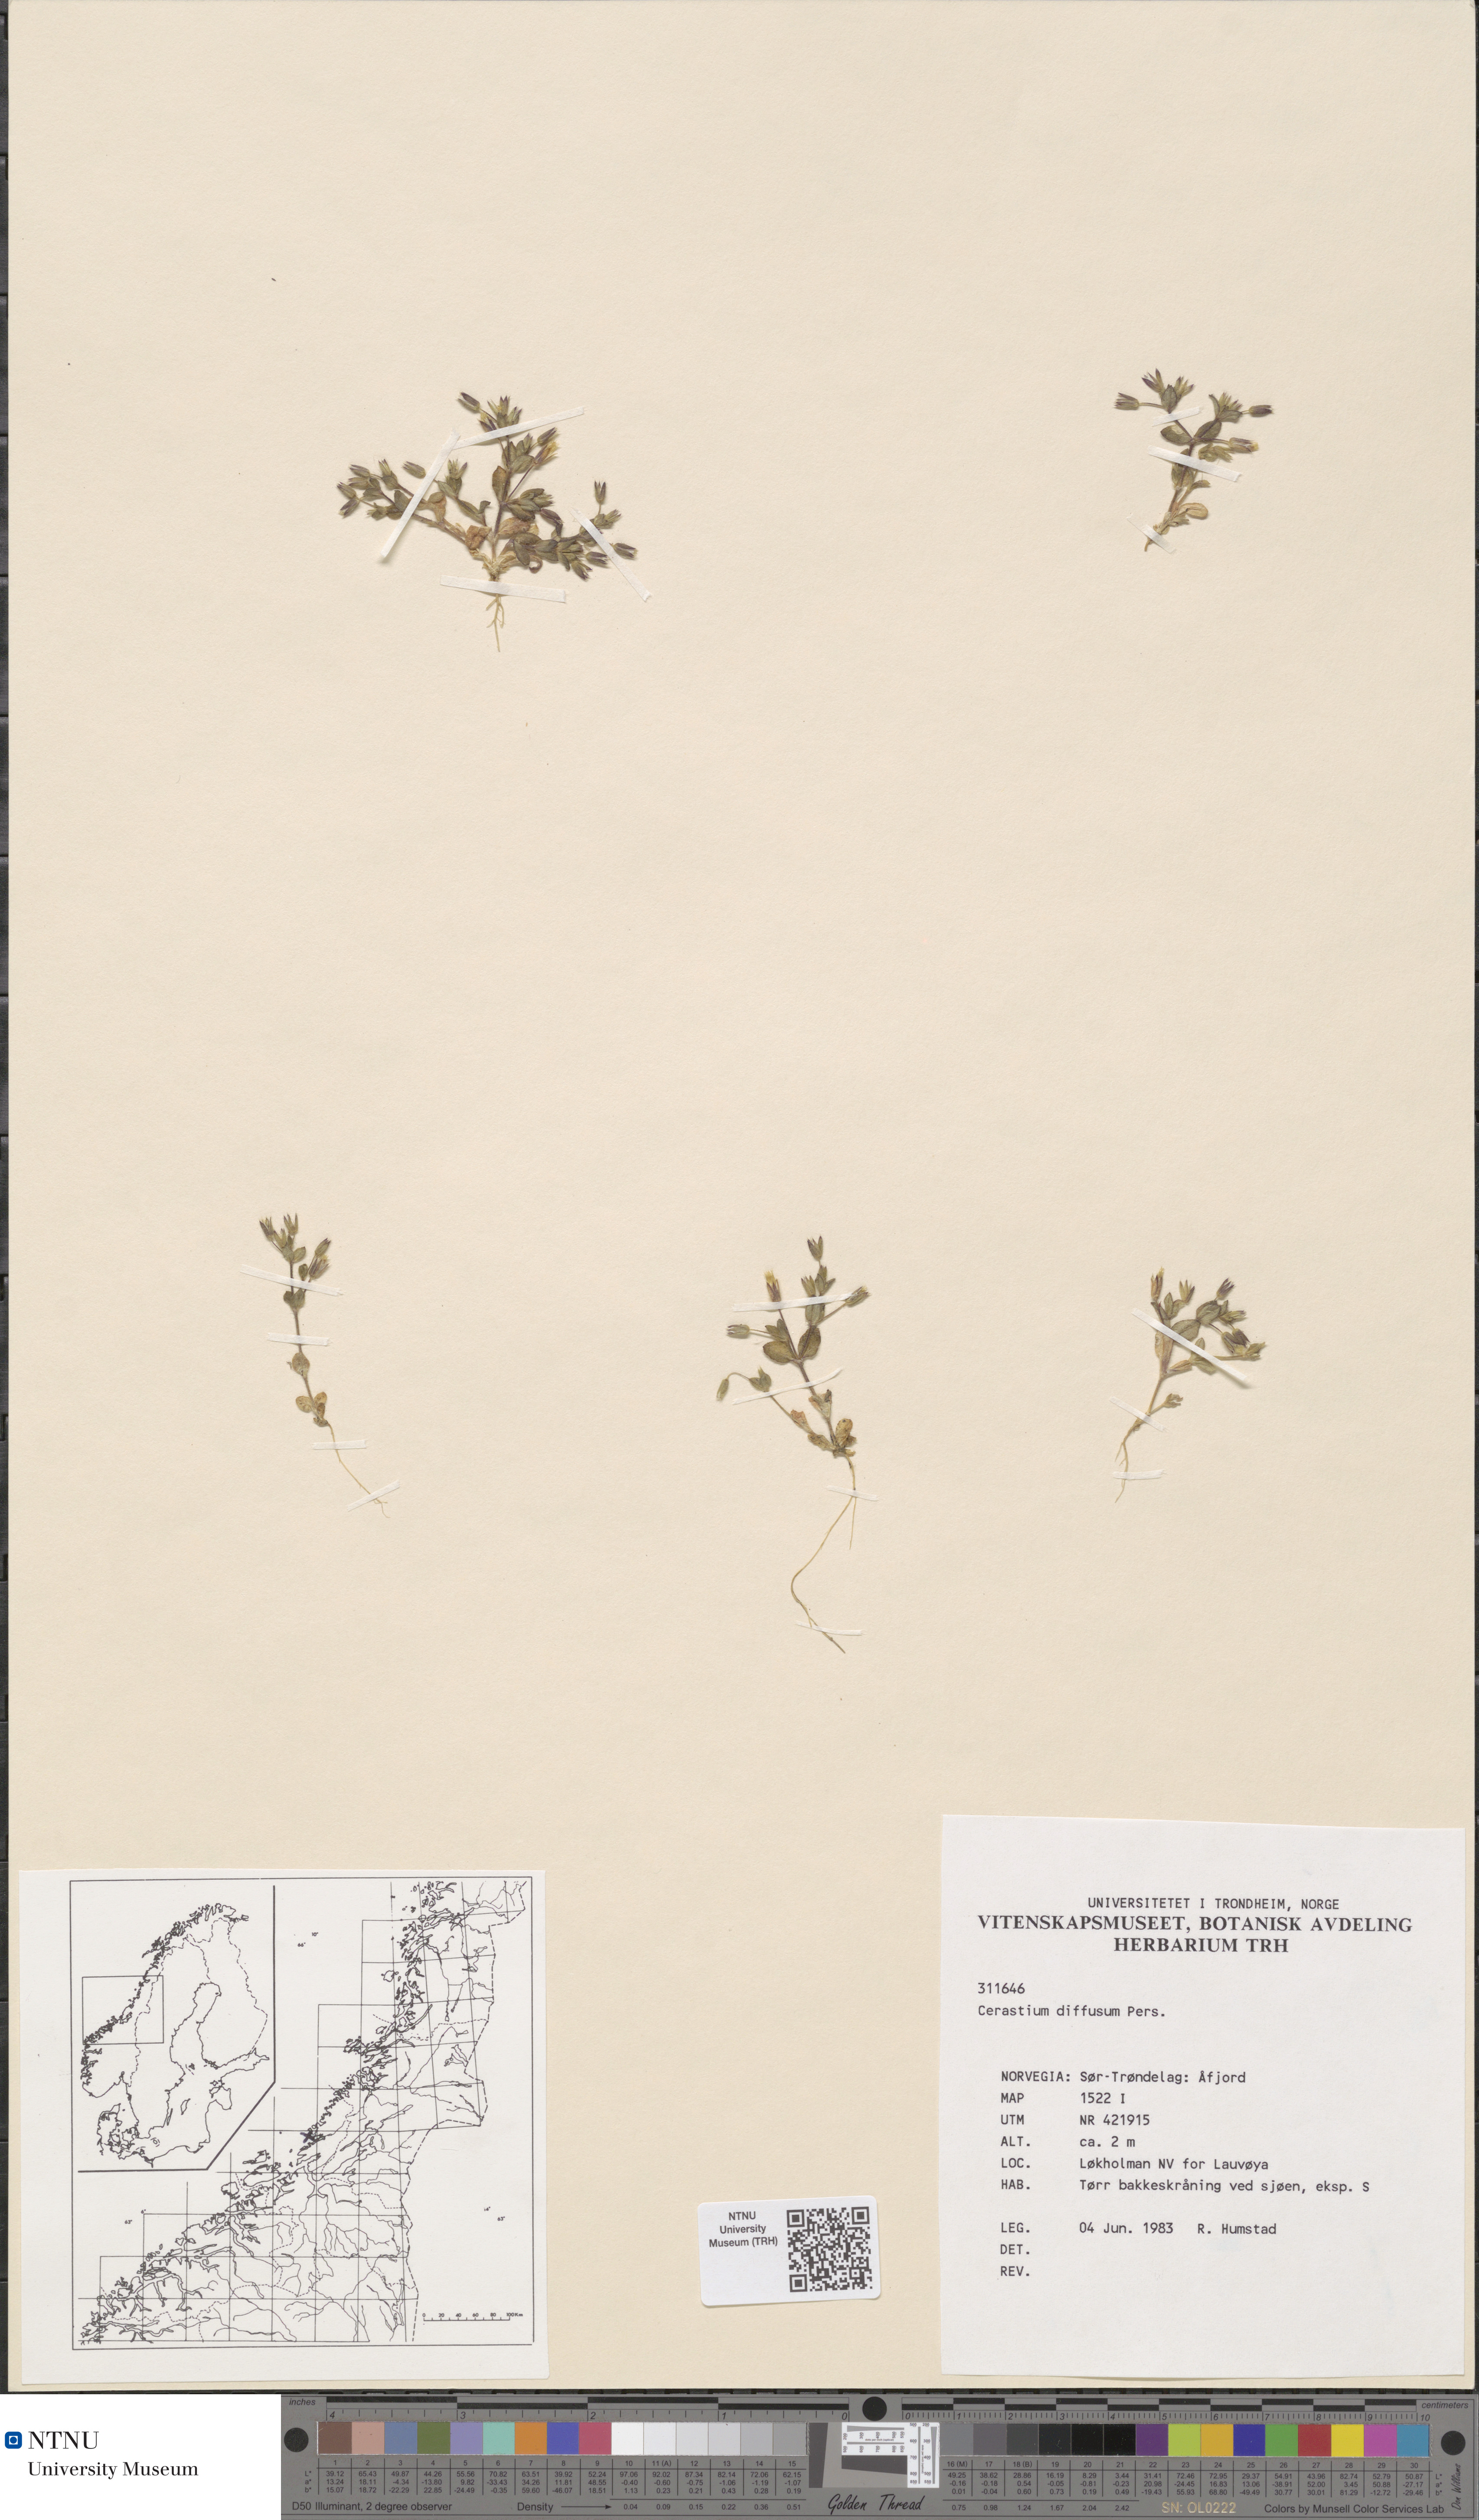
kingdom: Plantae
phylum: Tracheophyta
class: Magnoliopsida
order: Caryophyllales
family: Caryophyllaceae
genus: Cerastium
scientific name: Cerastium diffusum
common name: Fourstamen chickweed
